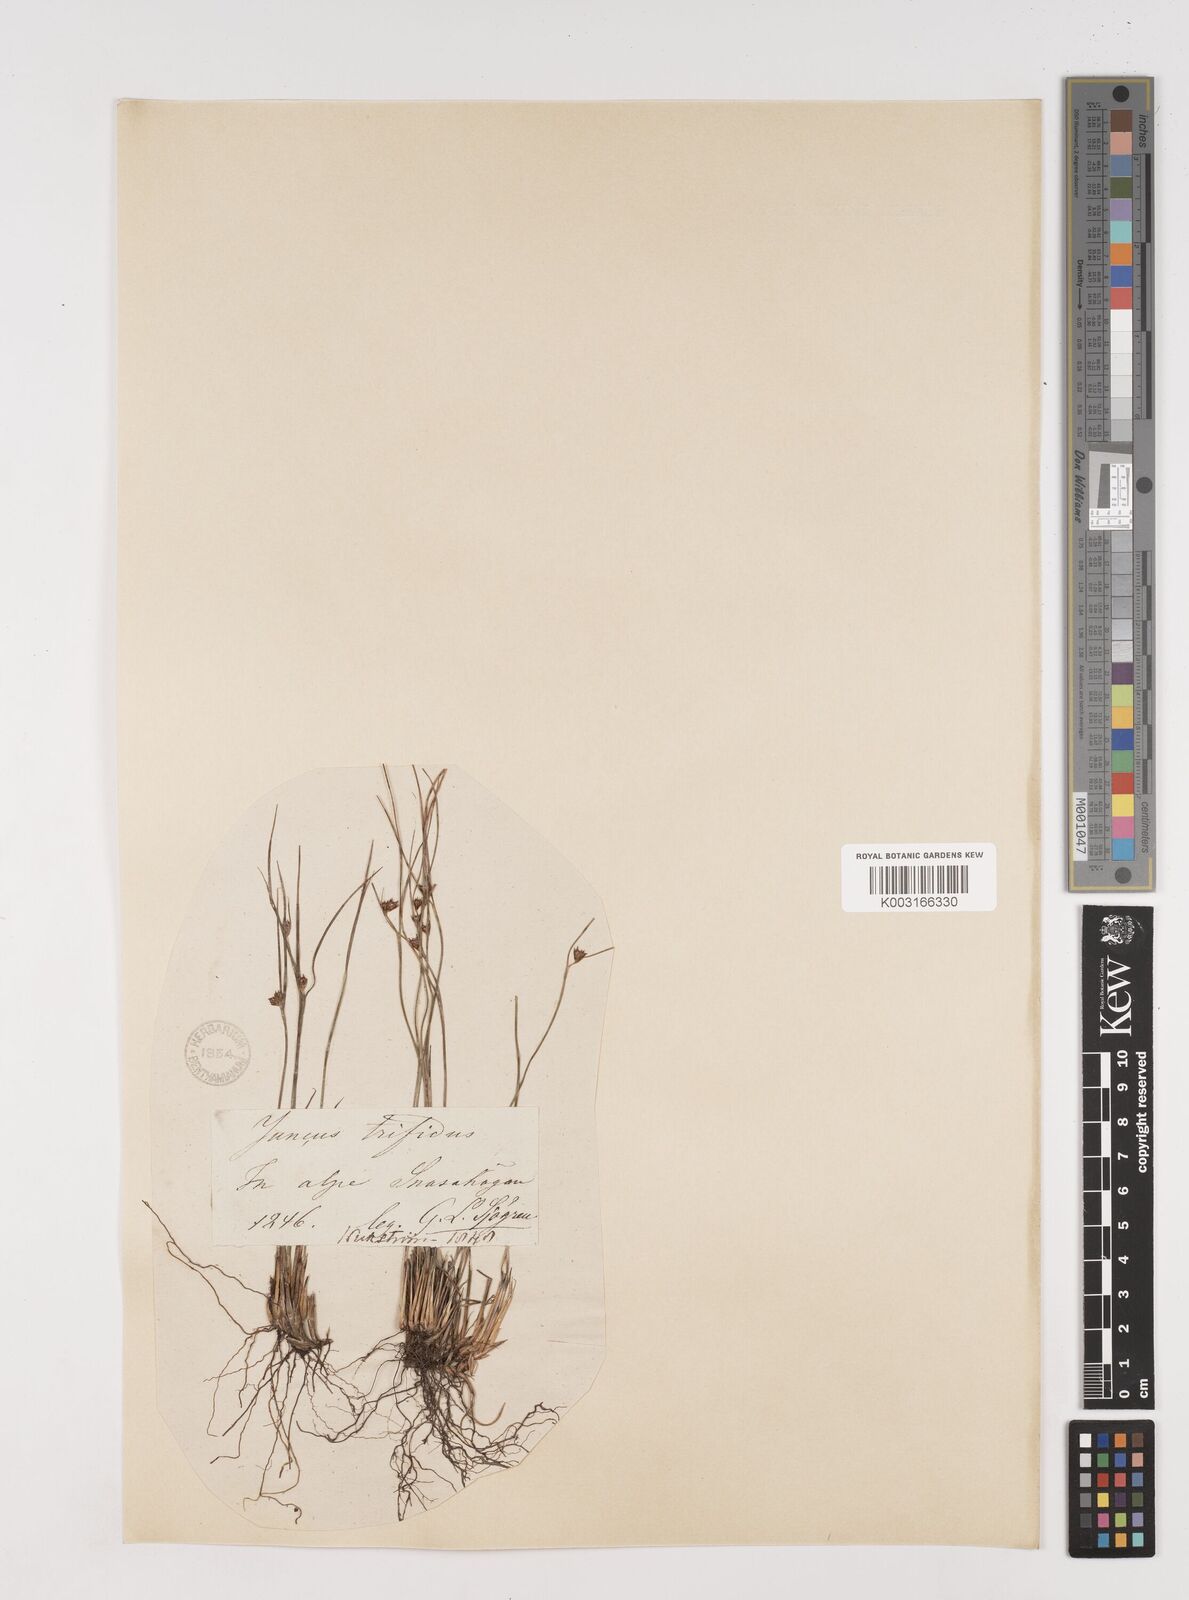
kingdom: Plantae
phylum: Tracheophyta
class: Liliopsida
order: Poales
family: Juncaceae
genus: Oreojuncus
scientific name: Oreojuncus trifidus
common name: Highland rush
